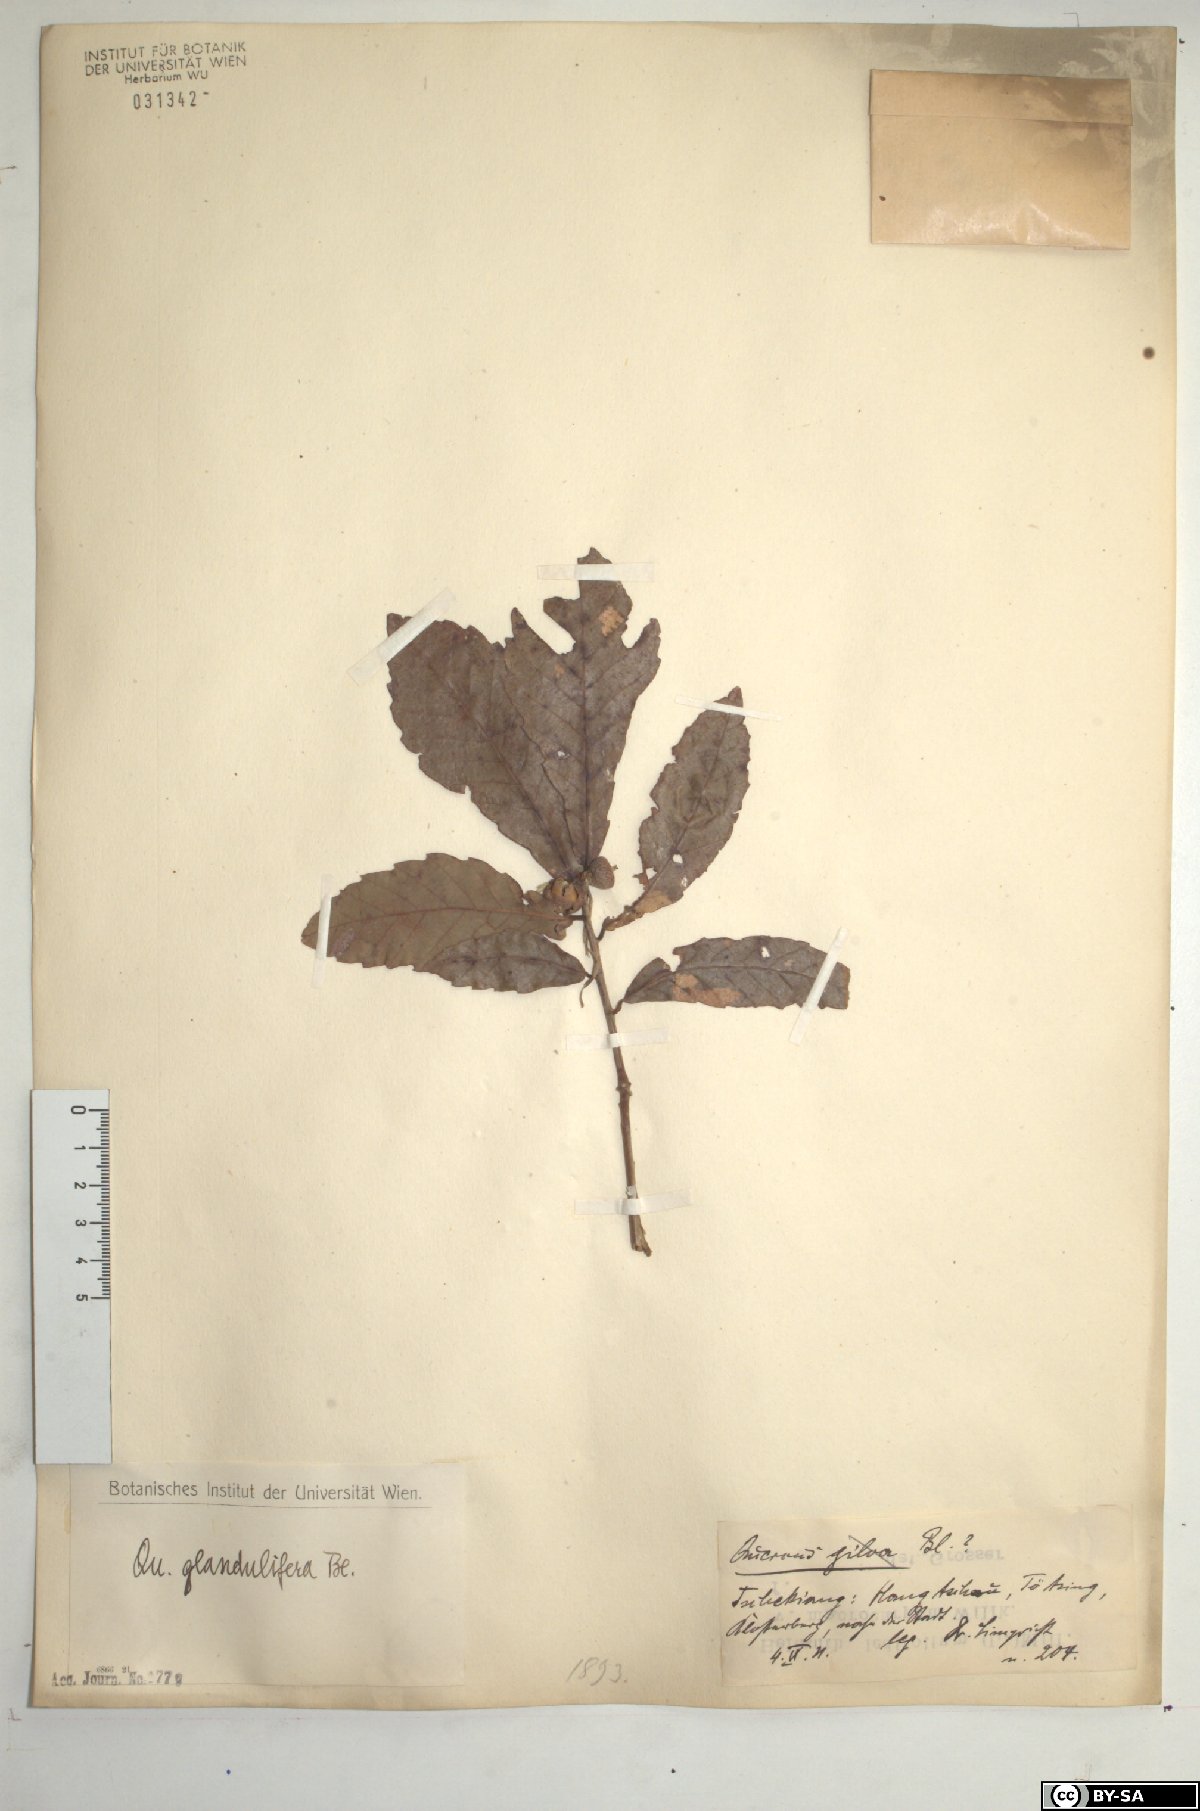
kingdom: Plantae
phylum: Tracheophyta
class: Magnoliopsida
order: Fagales
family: Fagaceae
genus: Quercus
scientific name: Quercus serrata
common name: Bao li
